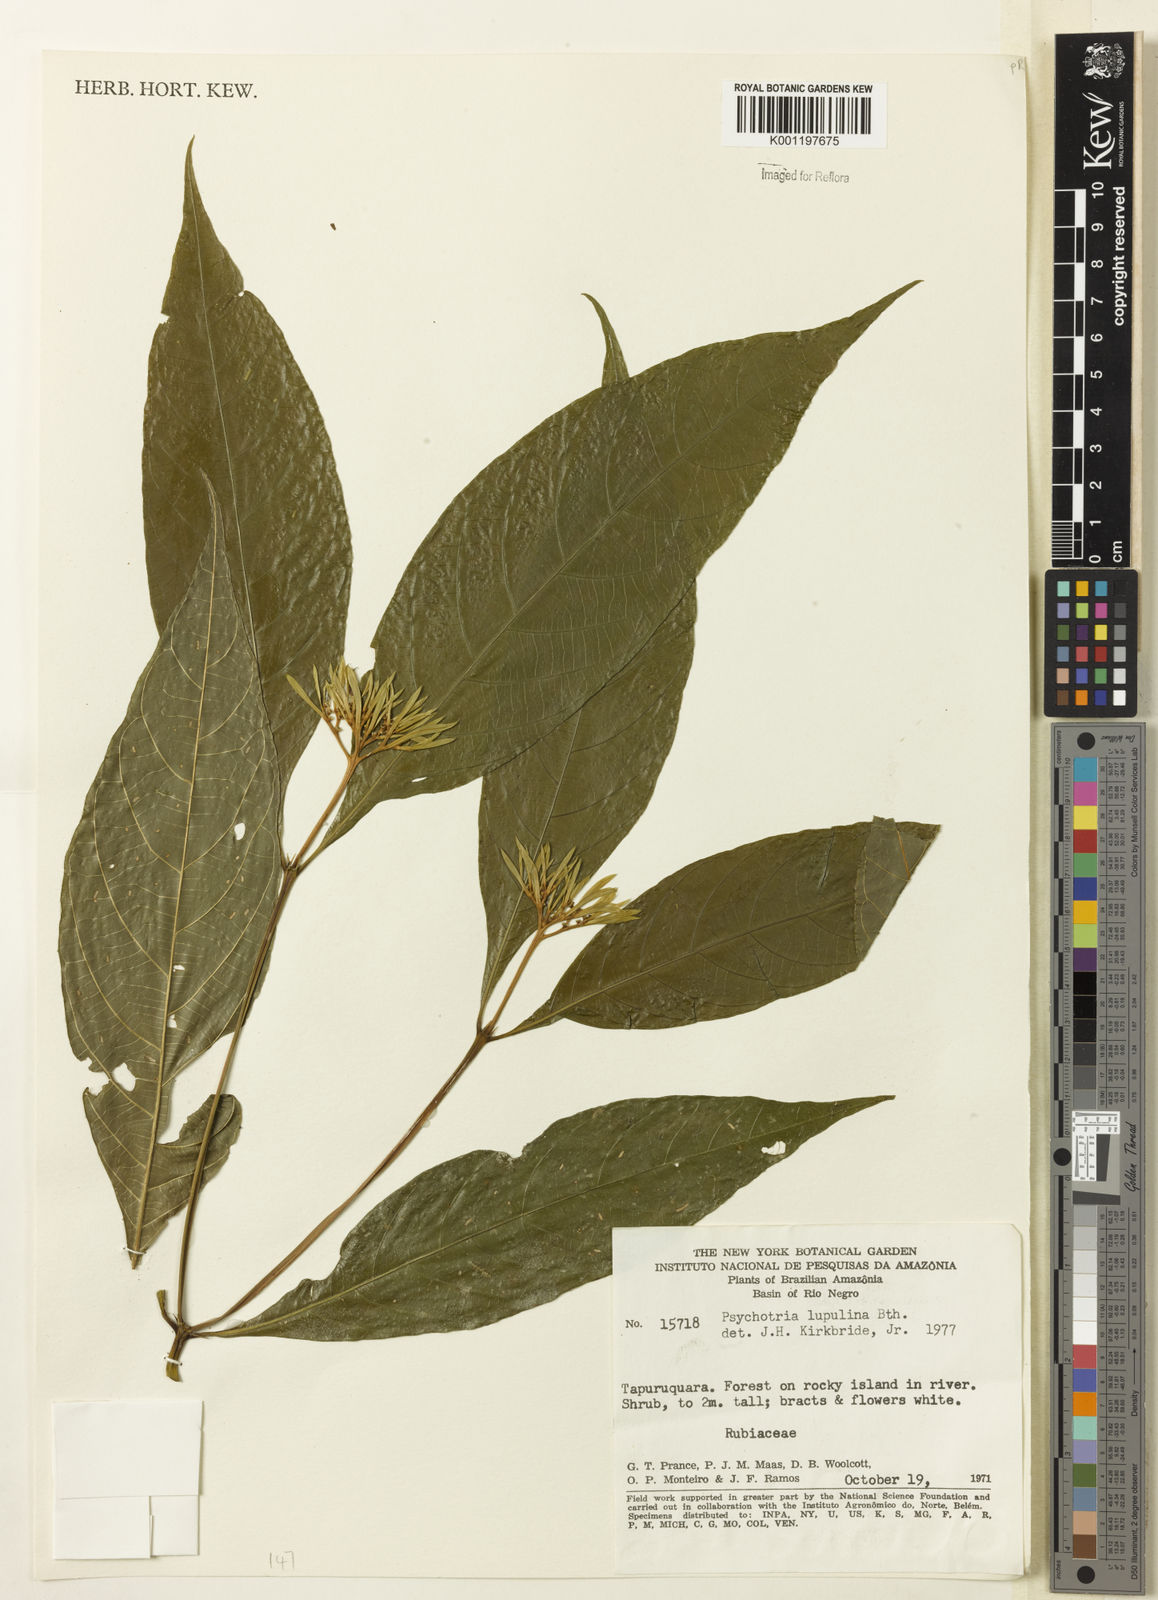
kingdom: Plantae
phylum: Tracheophyta
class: Magnoliopsida
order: Gentianales
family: Rubiaceae
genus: Palicourea
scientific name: Palicourea justiciifolia
